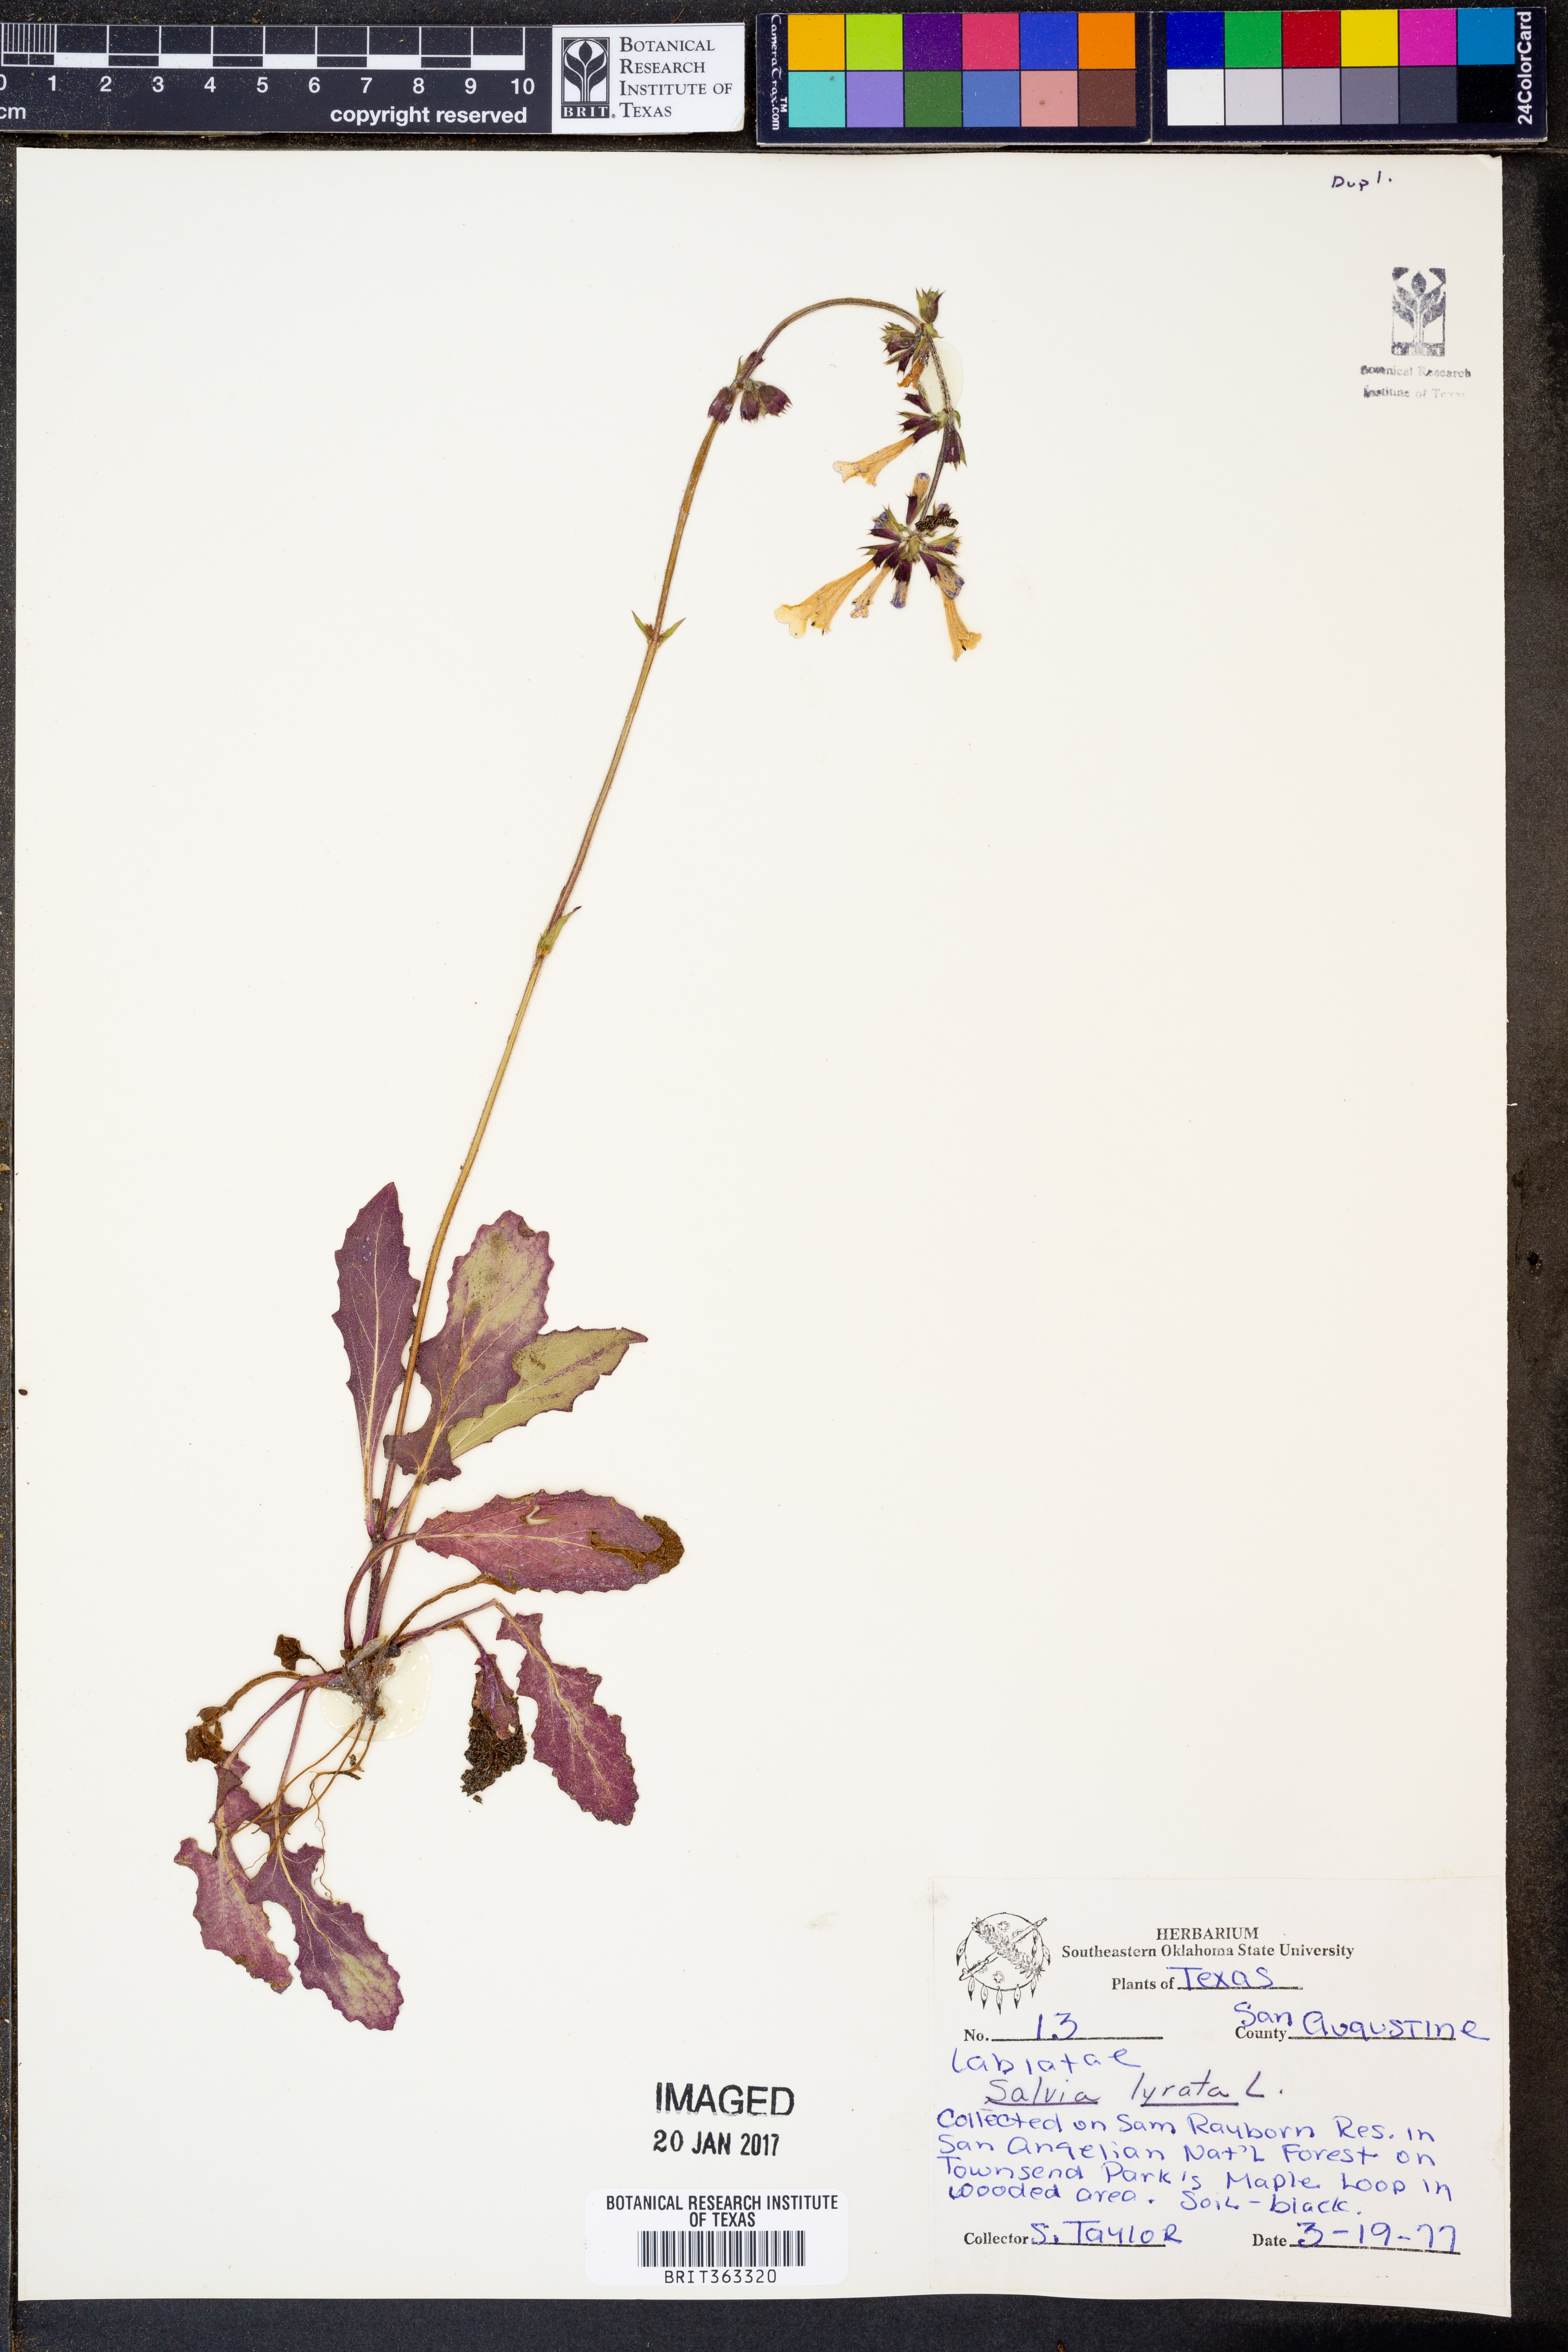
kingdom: Plantae
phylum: Tracheophyta
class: Magnoliopsida
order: Lamiales
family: Lamiaceae
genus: Salvia
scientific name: Salvia lyrata
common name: Cancerweed
